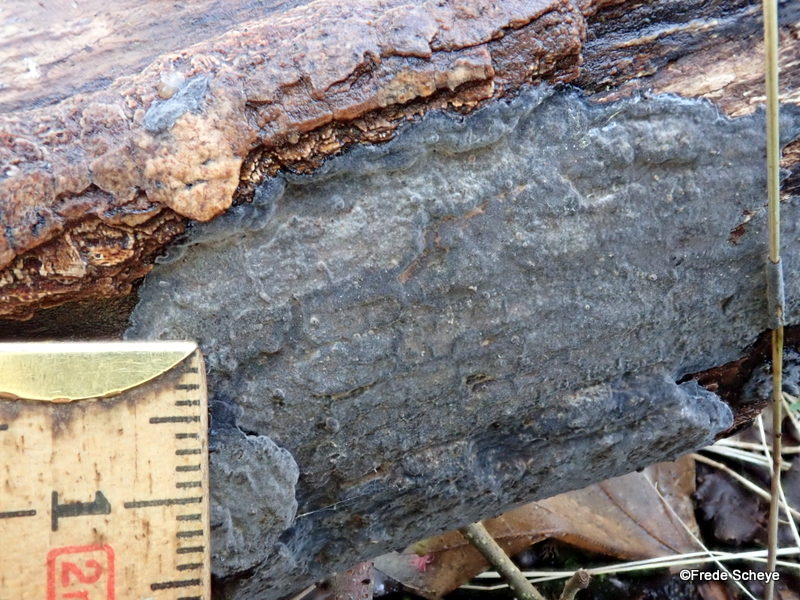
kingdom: Fungi
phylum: Basidiomycota
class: Agaricomycetes
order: Russulales
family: Peniophoraceae
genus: Peniophora
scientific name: Peniophora lycii
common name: grynet voksskind
